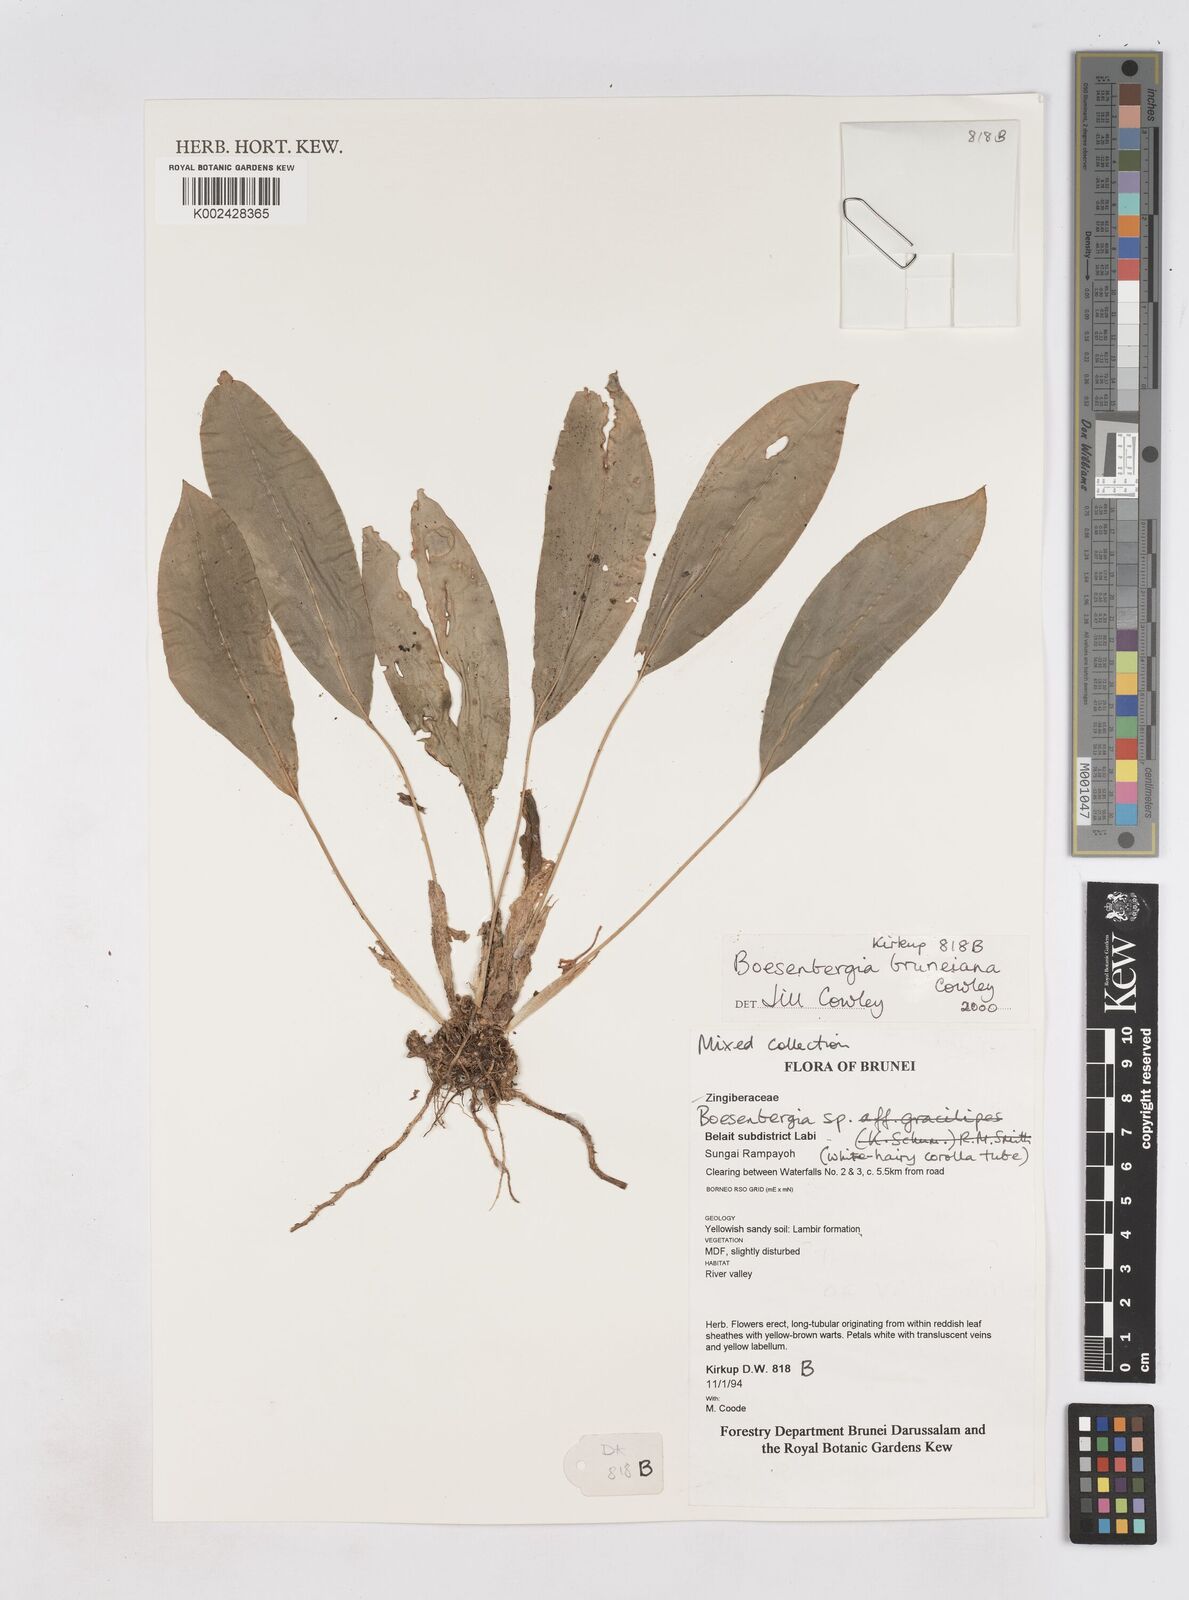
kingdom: Plantae
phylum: Tracheophyta
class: Liliopsida
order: Zingiberales
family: Zingiberaceae
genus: Boesenbergia
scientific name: Boesenbergia bruneiana
